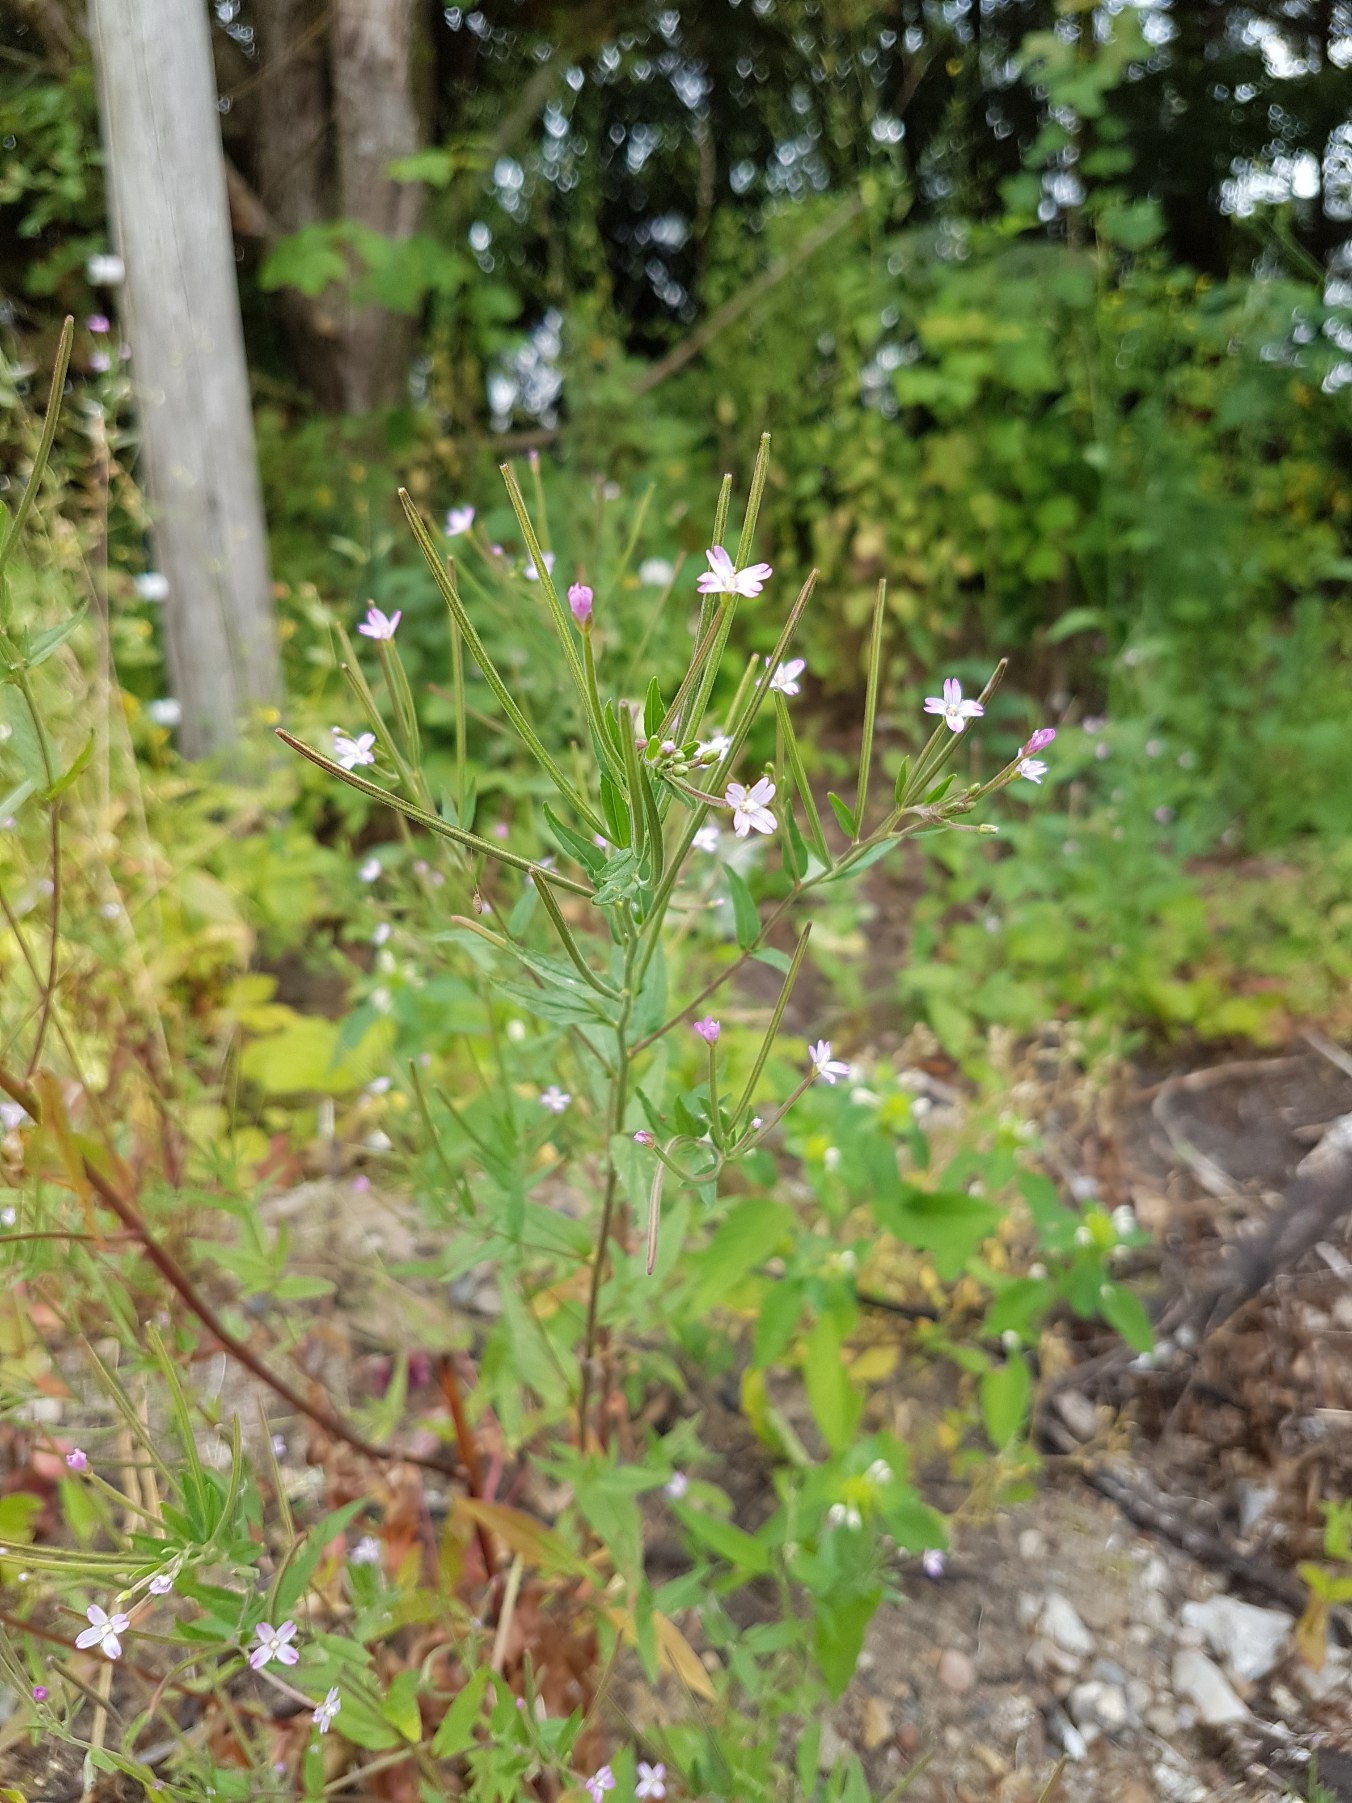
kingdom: Plantae
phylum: Tracheophyta
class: Magnoliopsida
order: Myrtales
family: Onagraceae
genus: Epilobium
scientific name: Epilobium ciliatum
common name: Kirtlet dueurt
